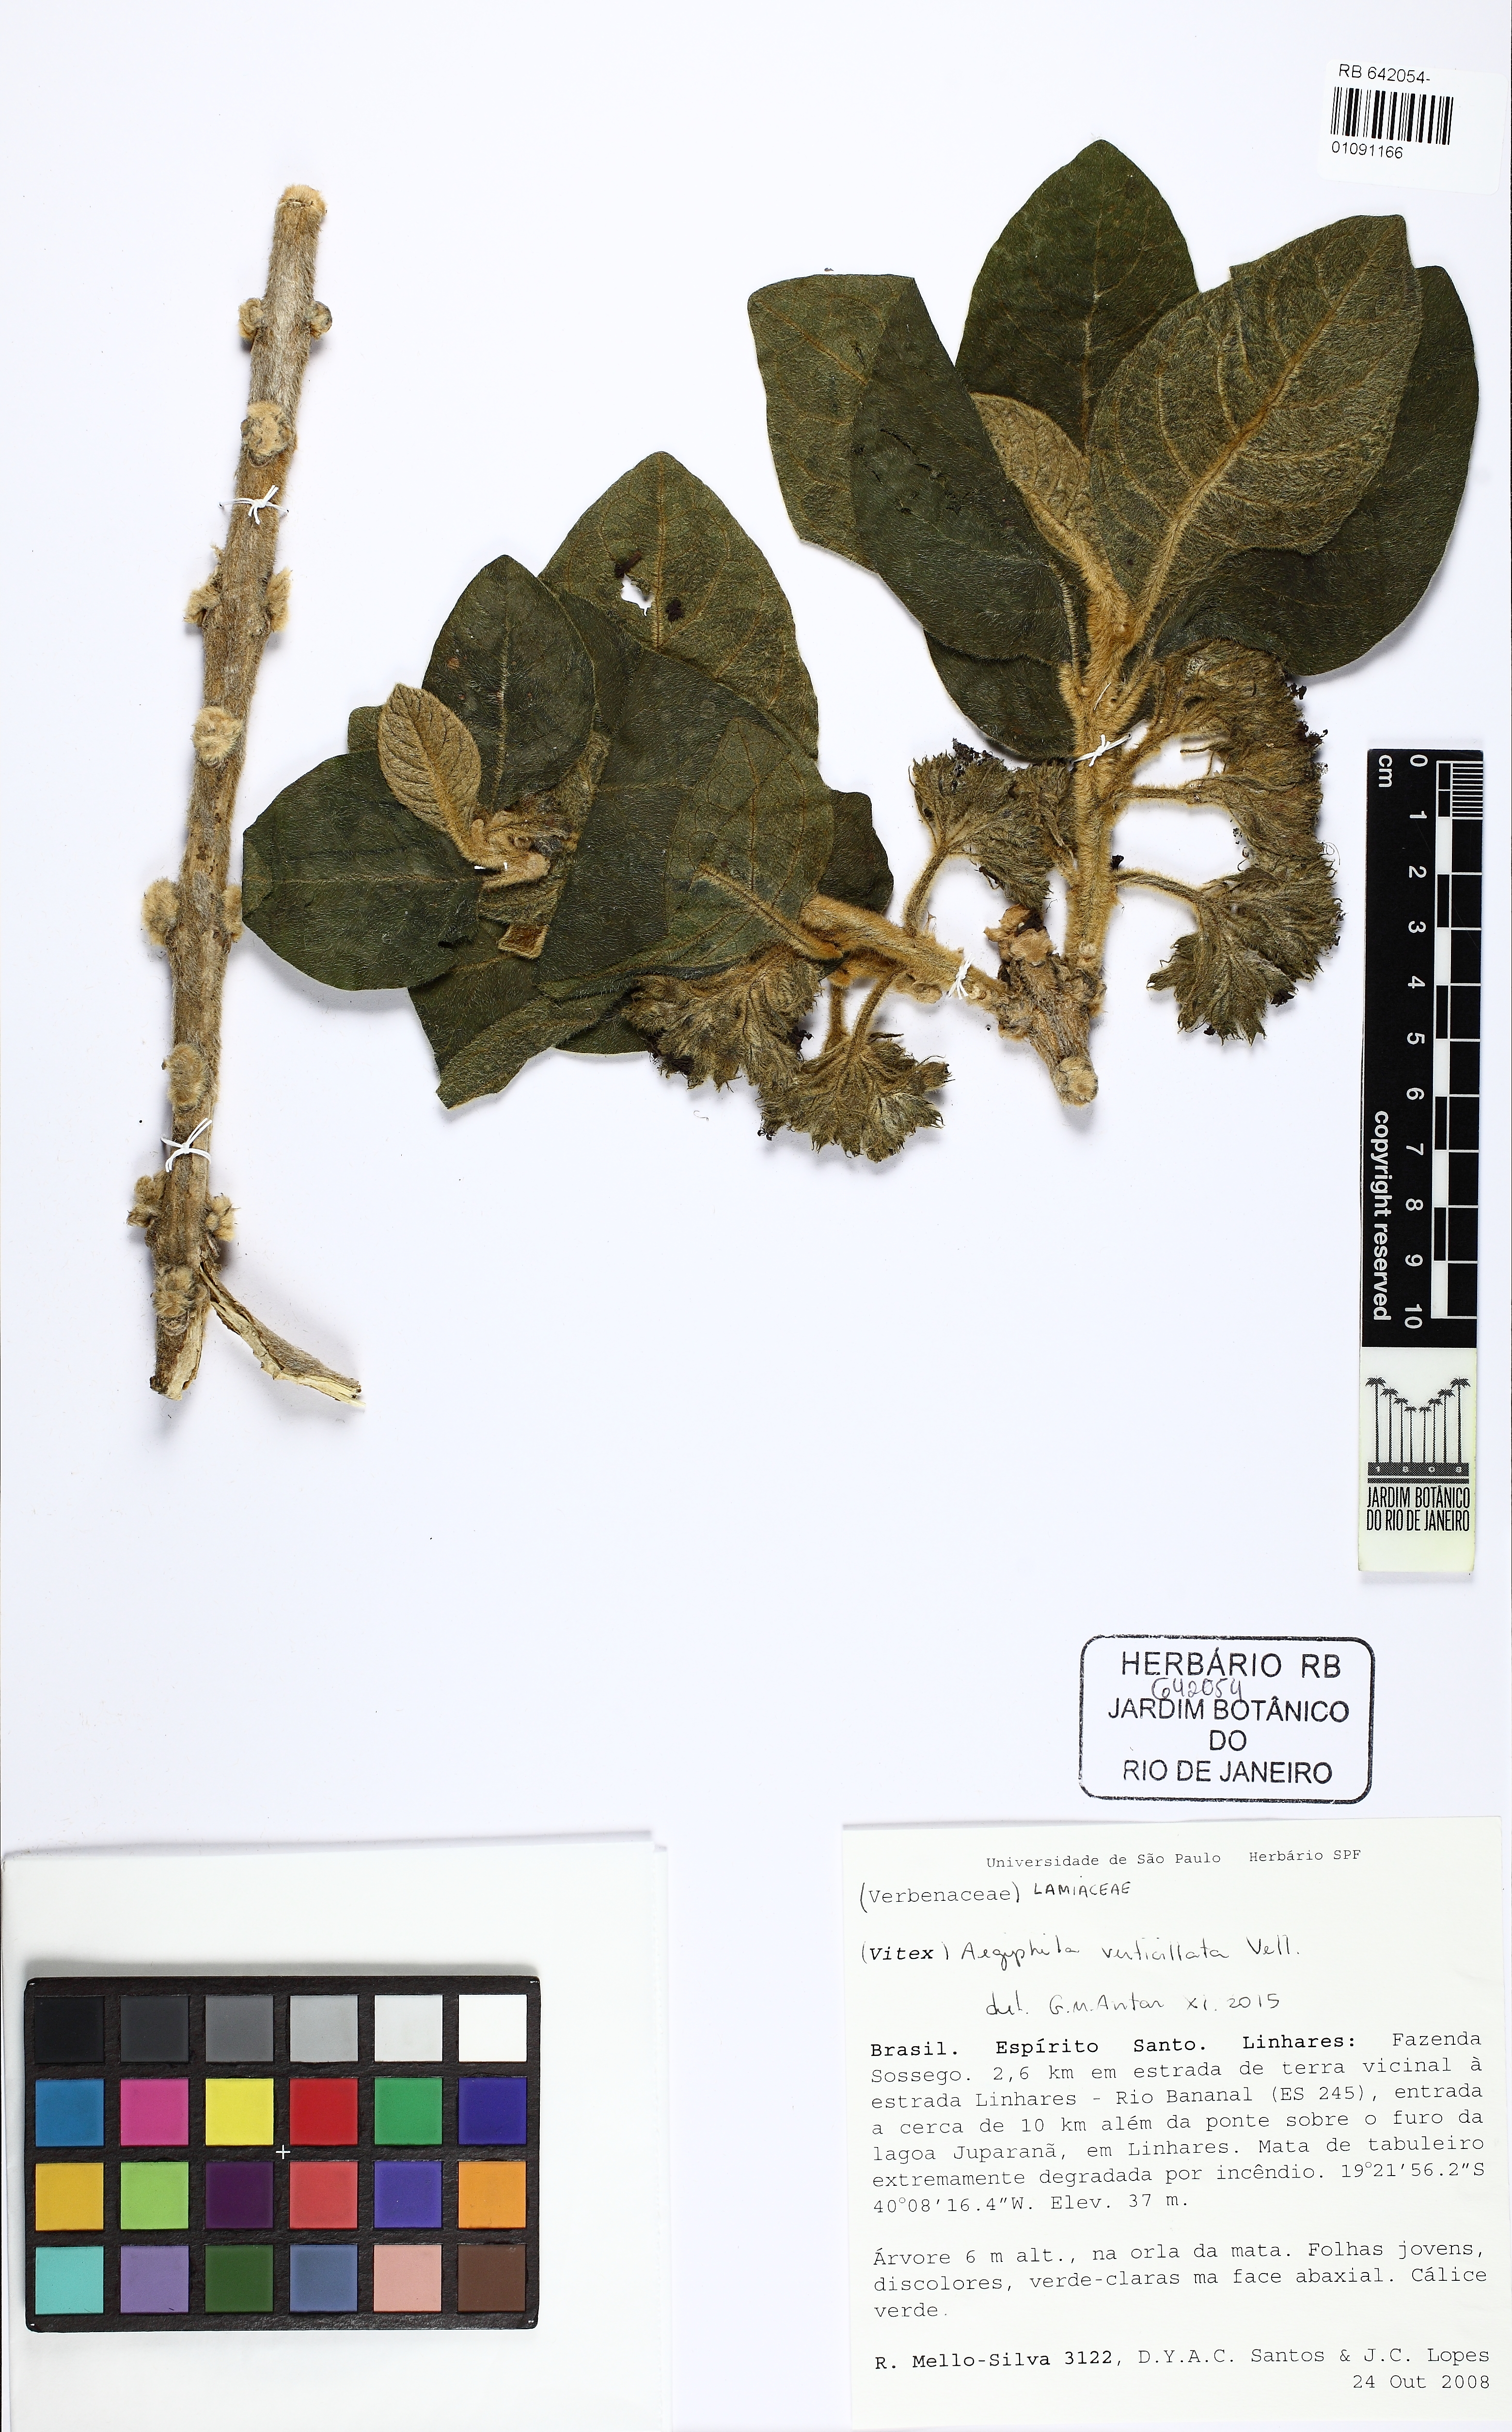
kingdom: Plantae
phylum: Tracheophyta
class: Magnoliopsida
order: Lamiales
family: Lamiaceae
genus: Aegiphila
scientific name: Aegiphila verticillata
